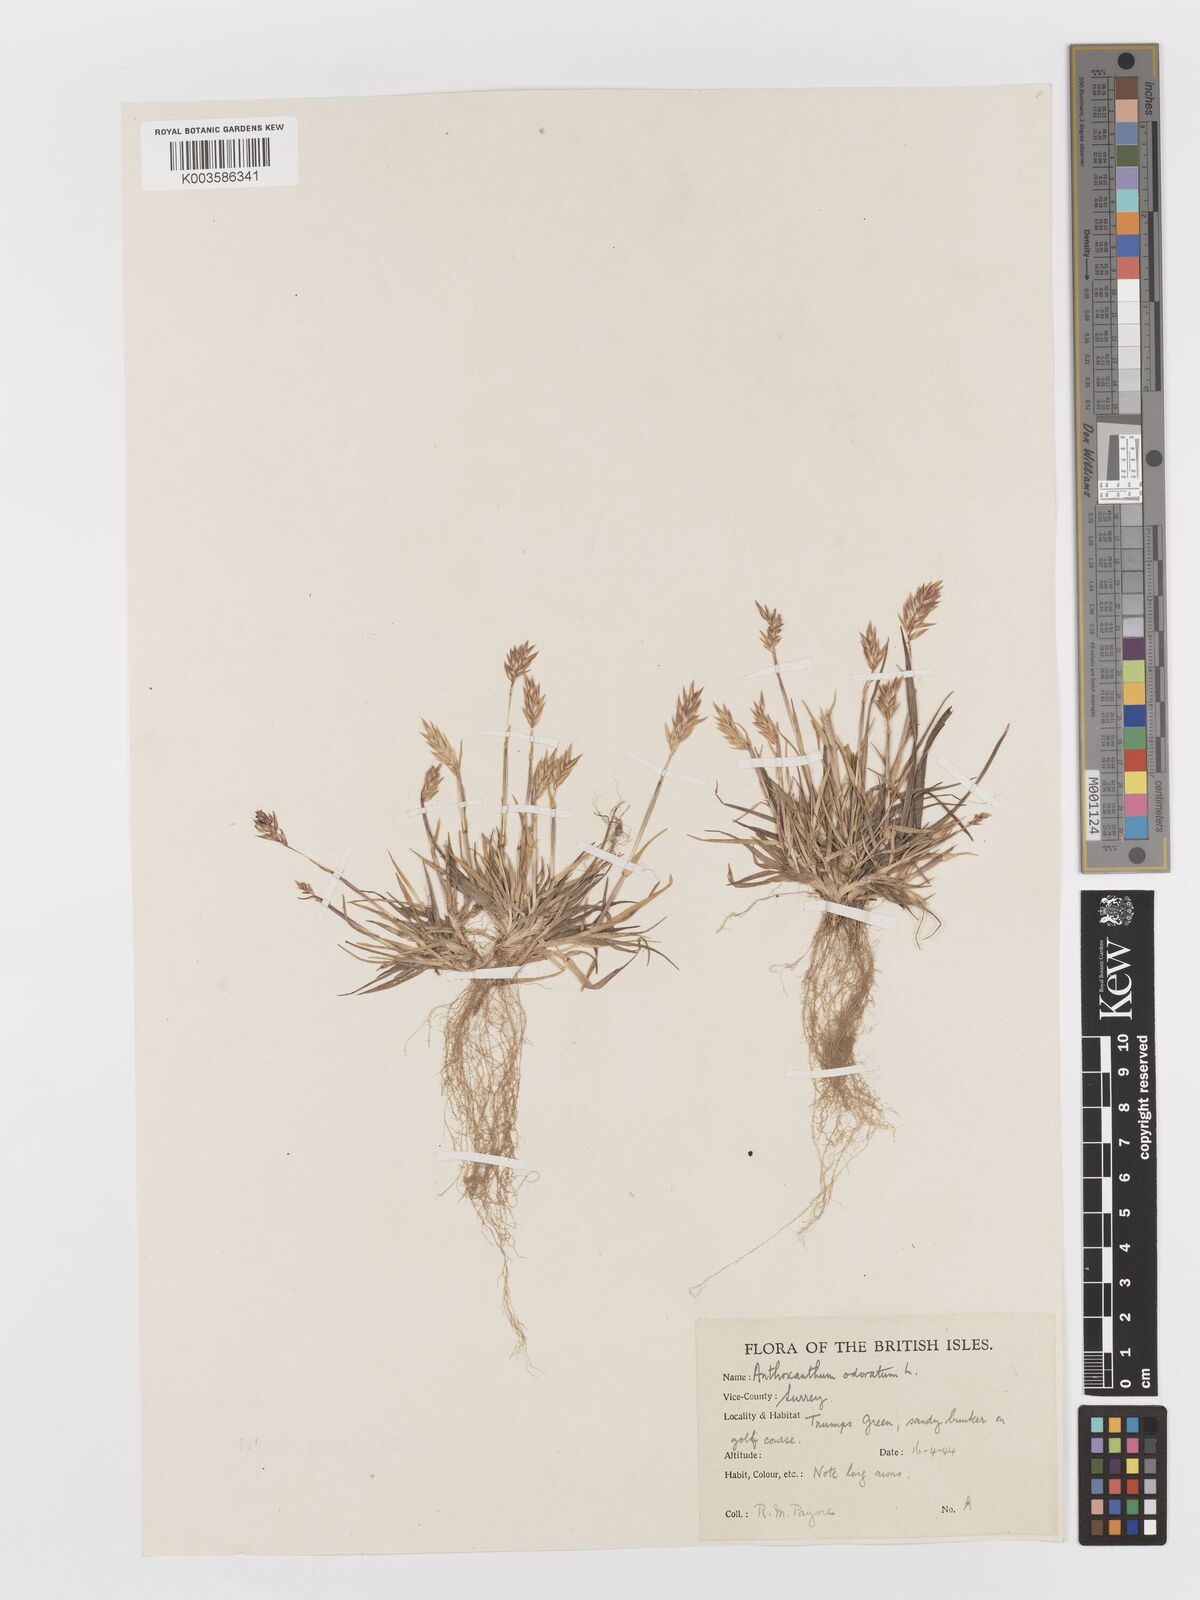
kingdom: Plantae
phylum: Tracheophyta
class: Liliopsida
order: Poales
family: Poaceae
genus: Anthoxanthum
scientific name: Anthoxanthum odoratum
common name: Sweet vernalgrass
